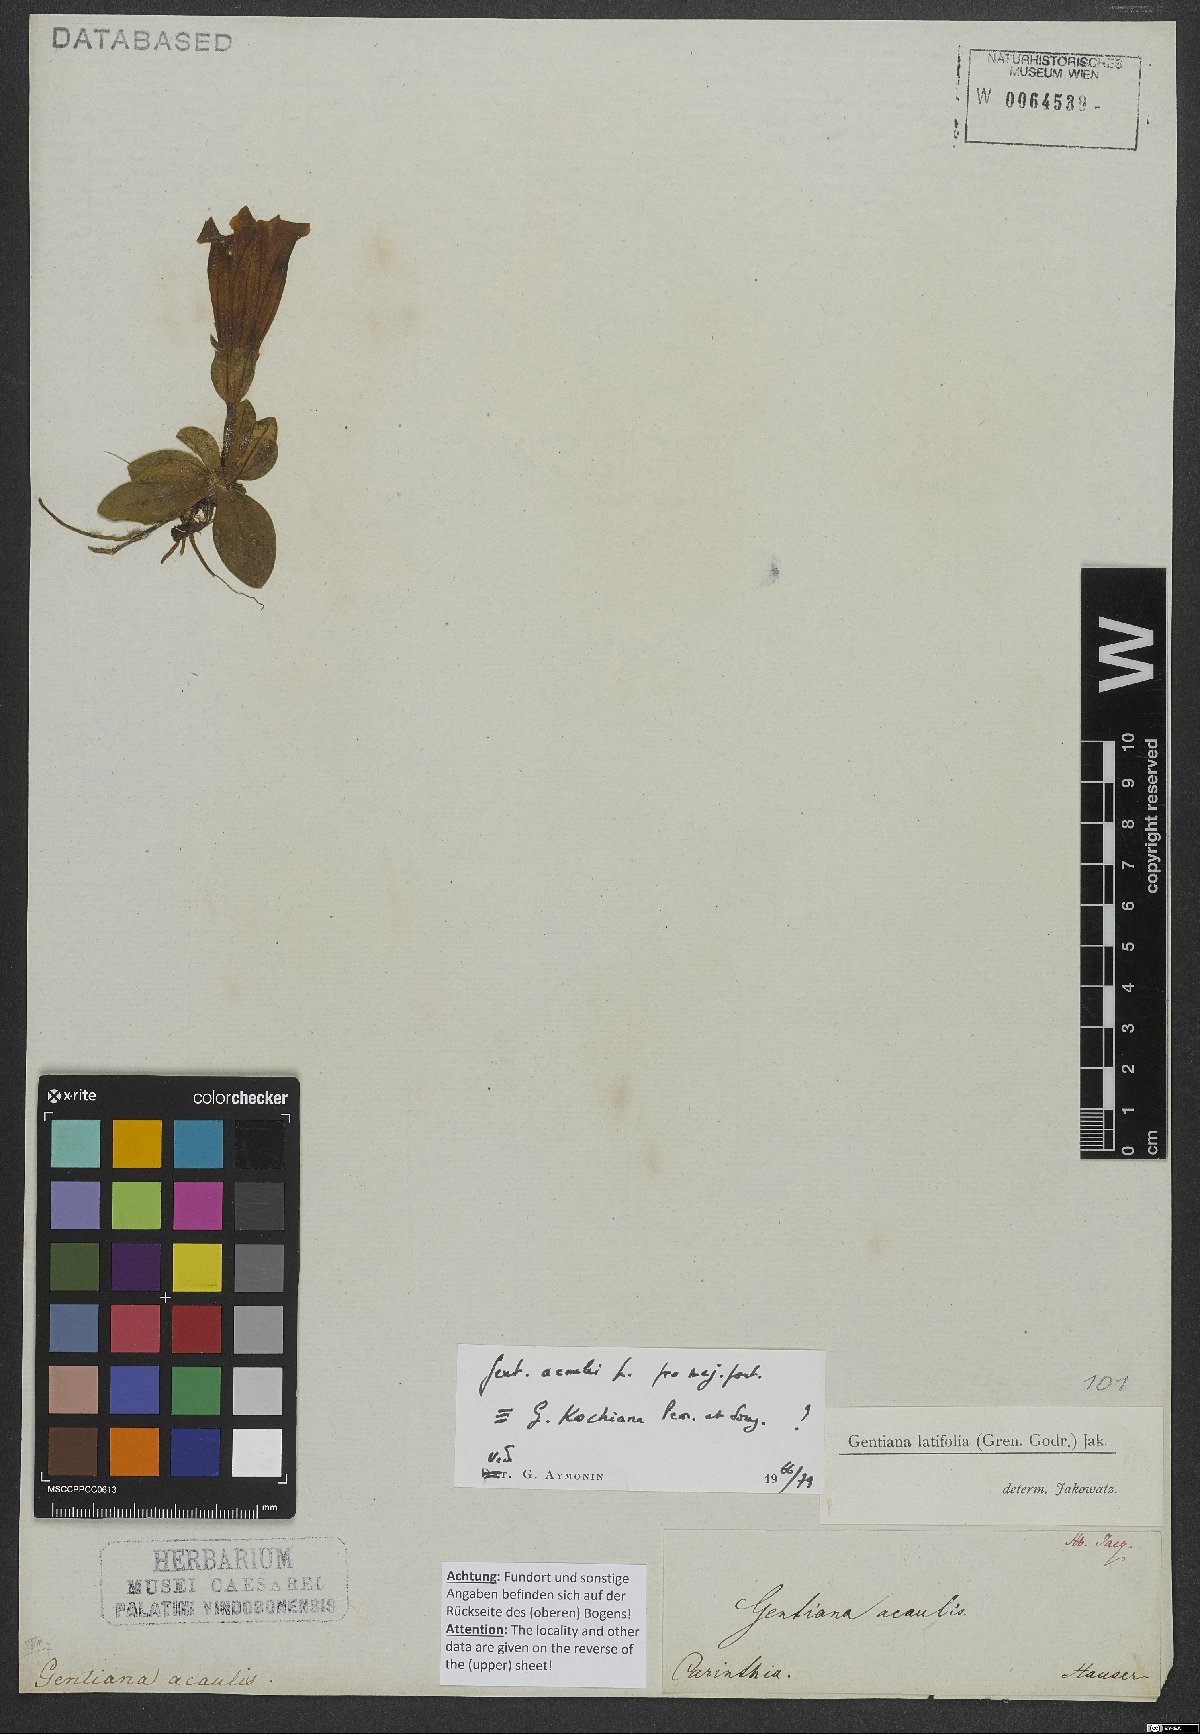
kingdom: Plantae
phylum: Tracheophyta
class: Magnoliopsida
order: Gentianales
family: Gentianaceae
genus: Gentiana
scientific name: Gentiana acaulis
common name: Trumpet gentian
